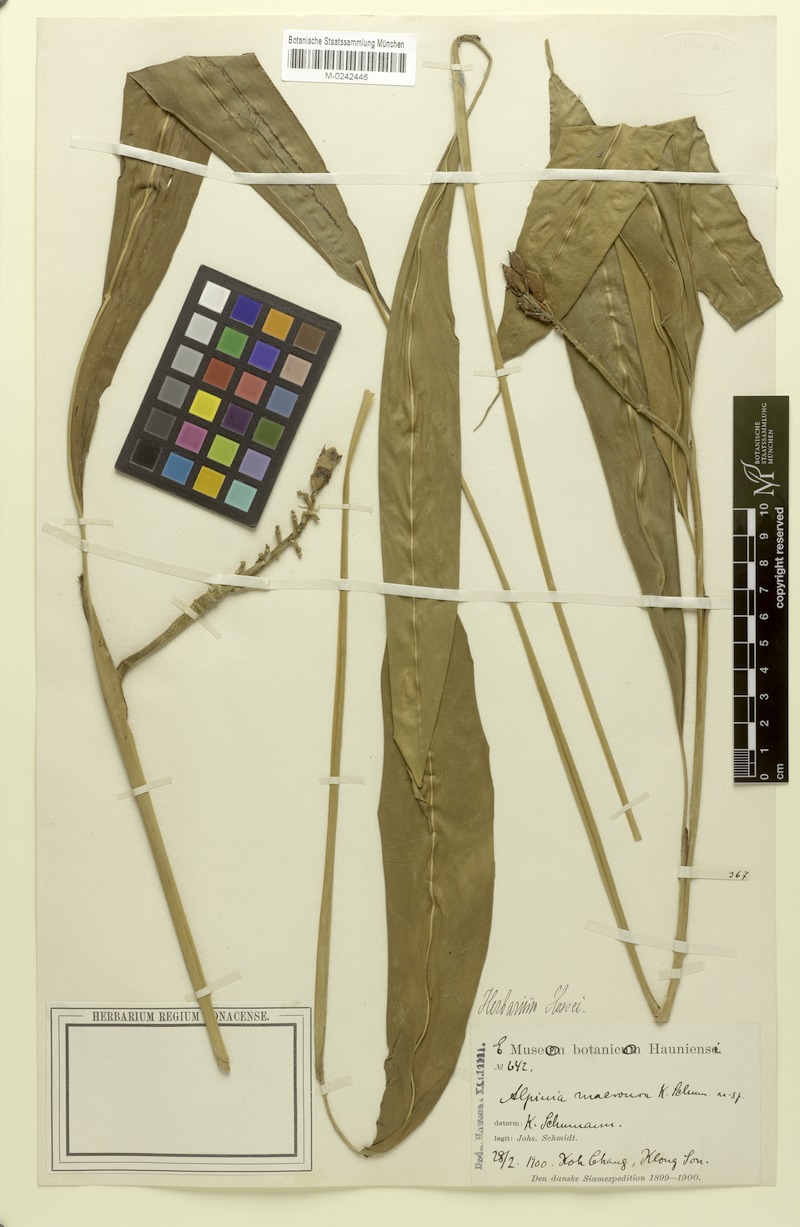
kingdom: Plantae
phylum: Tracheophyta
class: Liliopsida
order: Zingiberales
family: Zingiberaceae
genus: Alpinia
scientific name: Alpinia macroura
